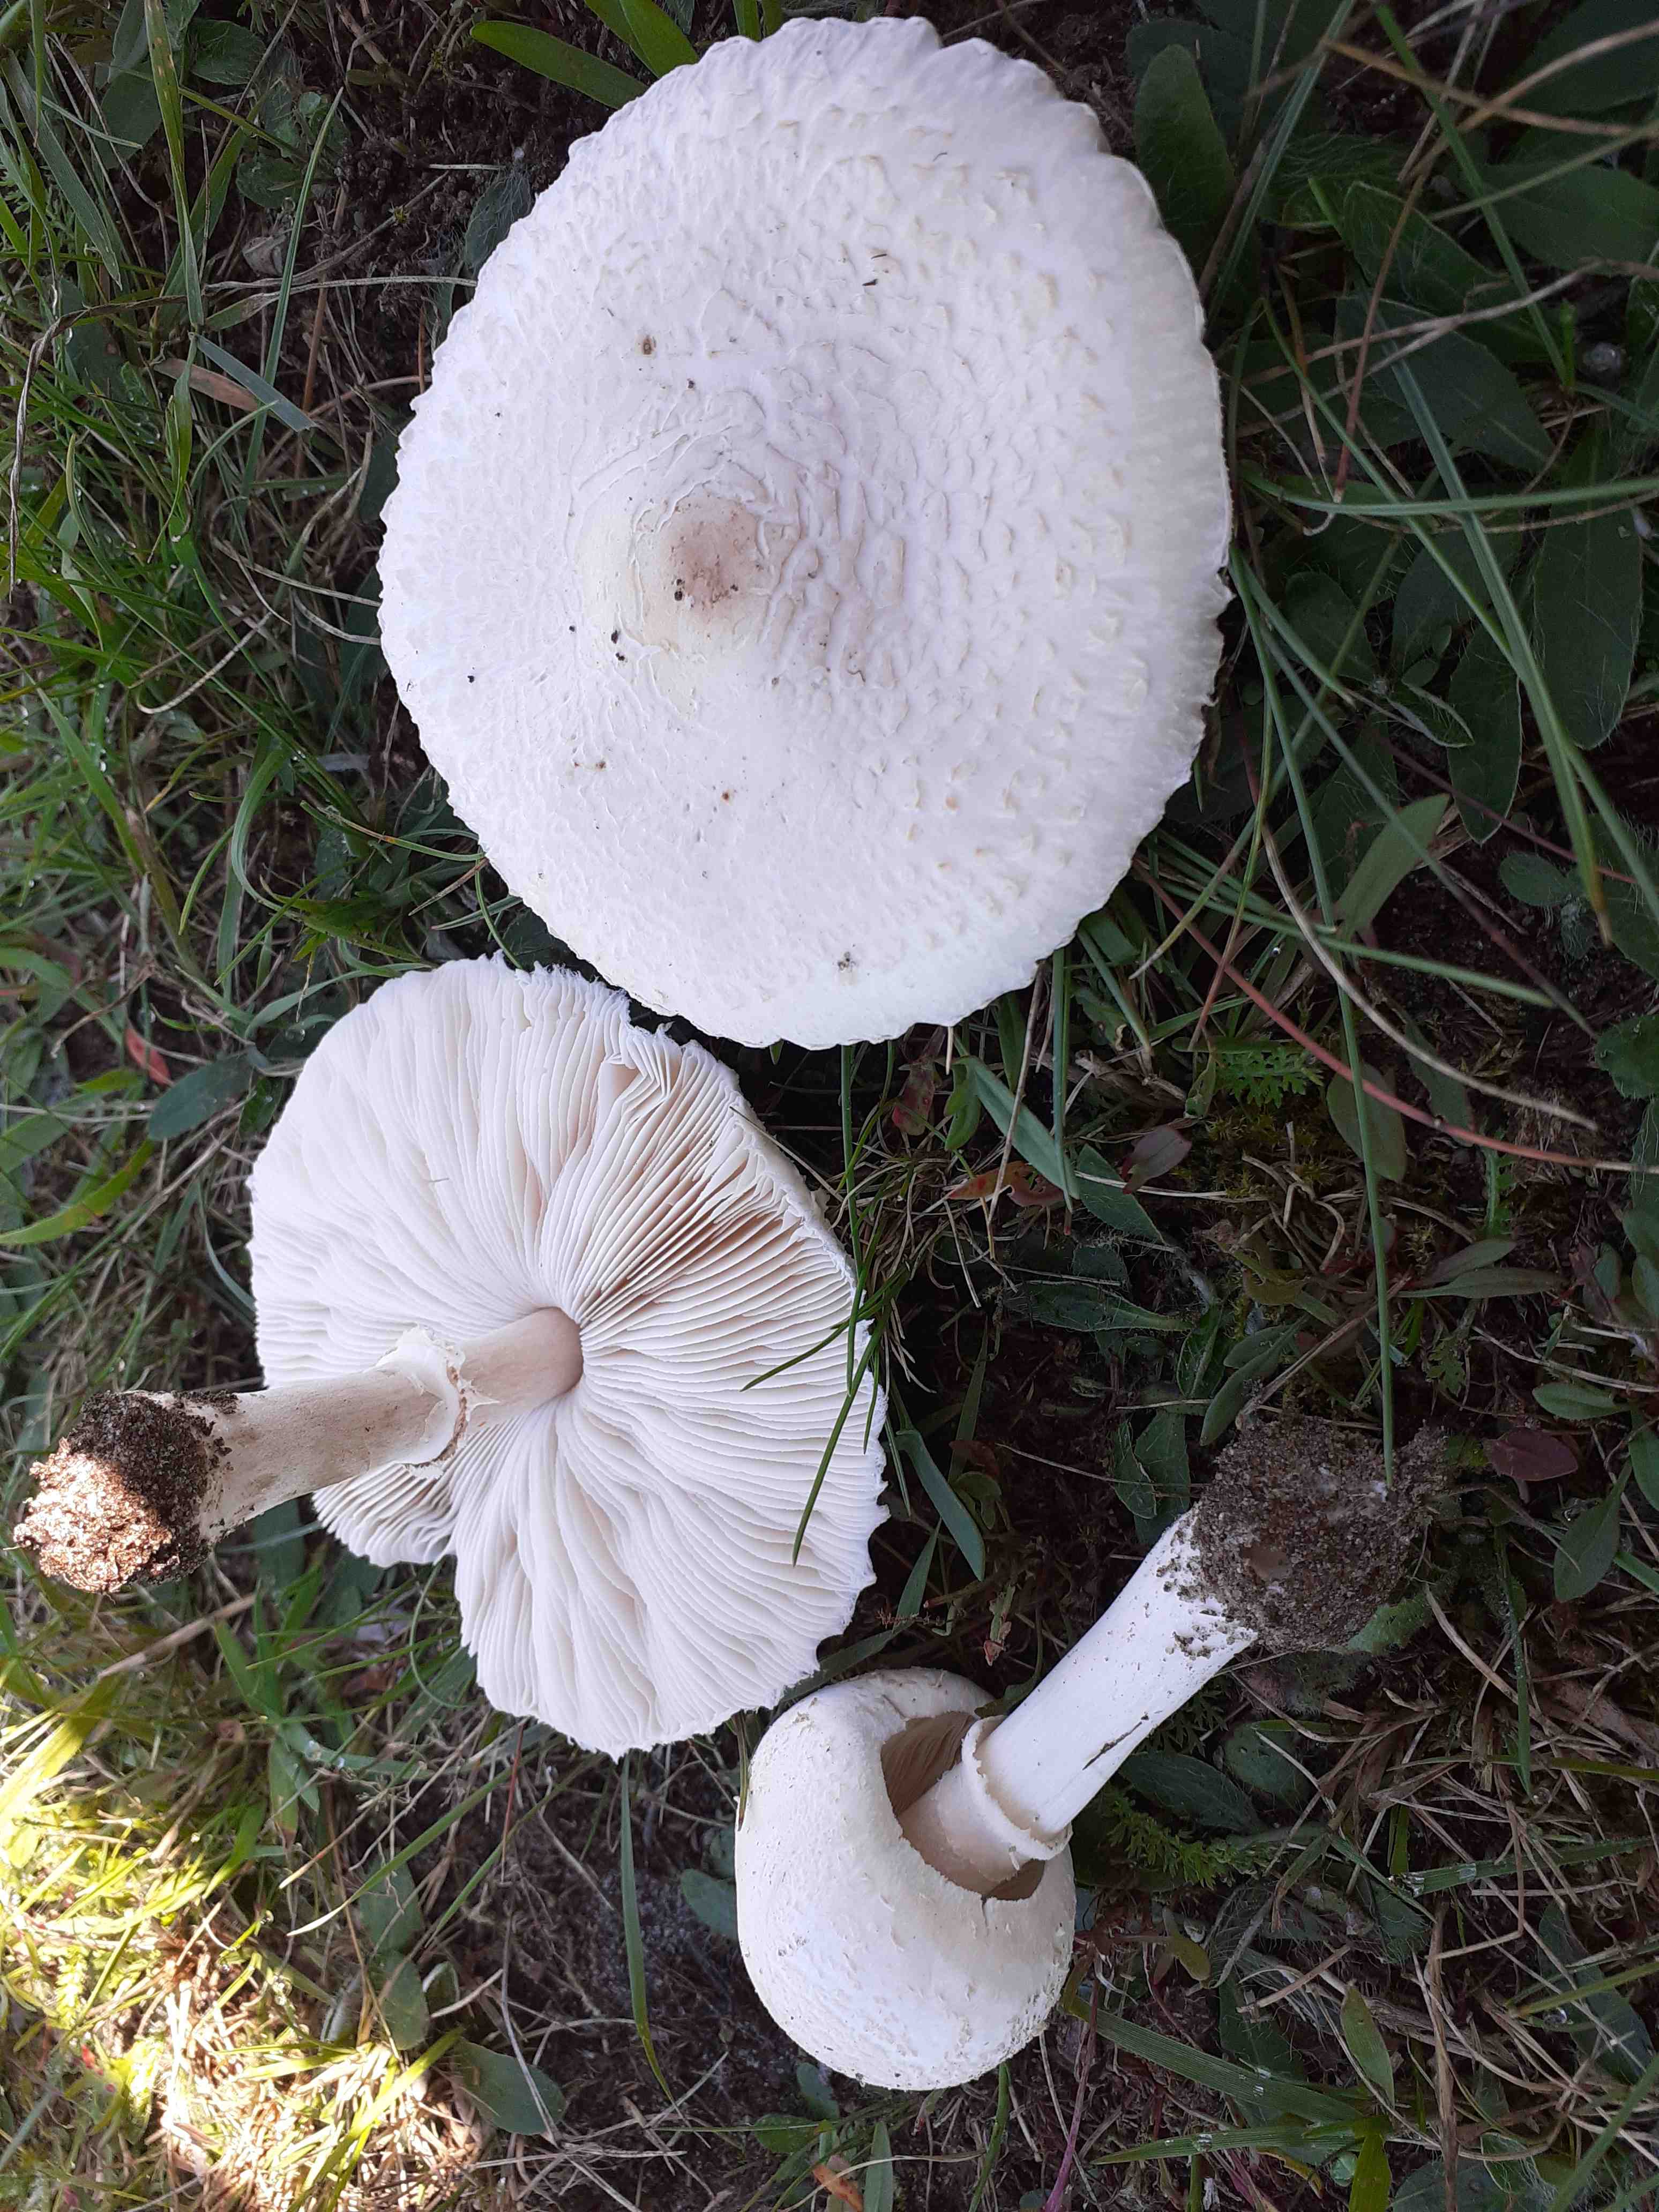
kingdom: Fungi
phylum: Basidiomycota
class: Agaricomycetes
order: Agaricales
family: Agaricaceae
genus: Macrolepiota
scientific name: Macrolepiota excoriata
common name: mark-kæmpeparasolhat
